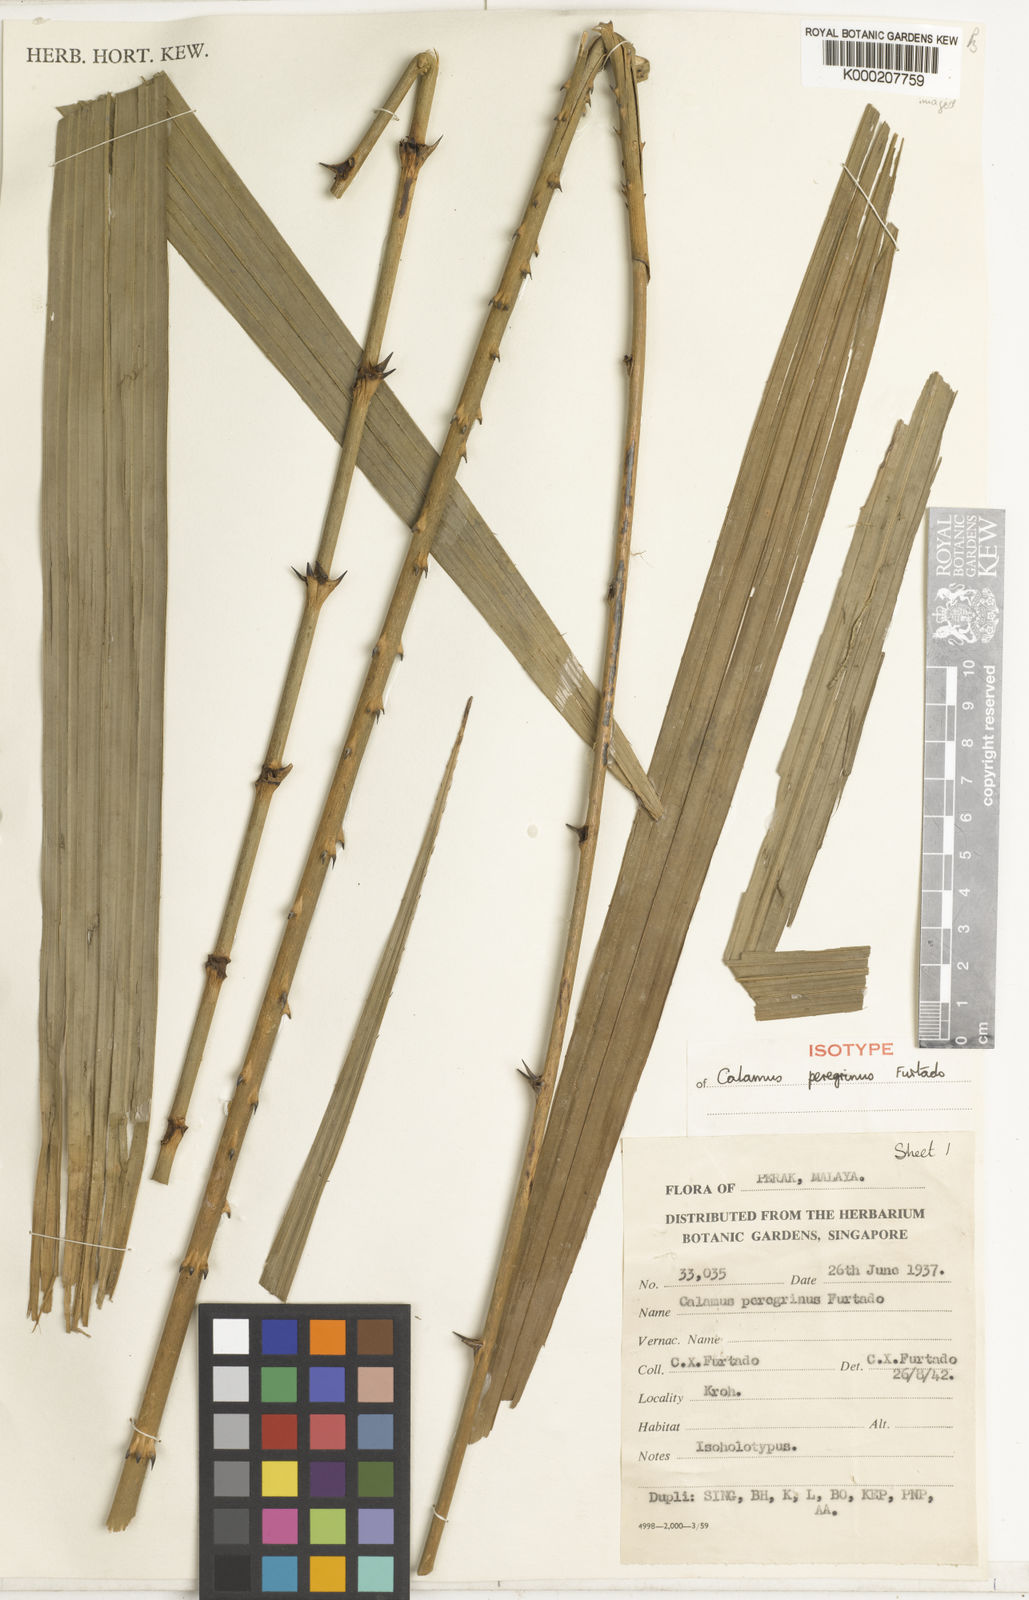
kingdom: Plantae
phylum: Tracheophyta
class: Liliopsida
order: Arecales
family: Arecaceae
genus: Calamus
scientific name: Calamus peregrinus
